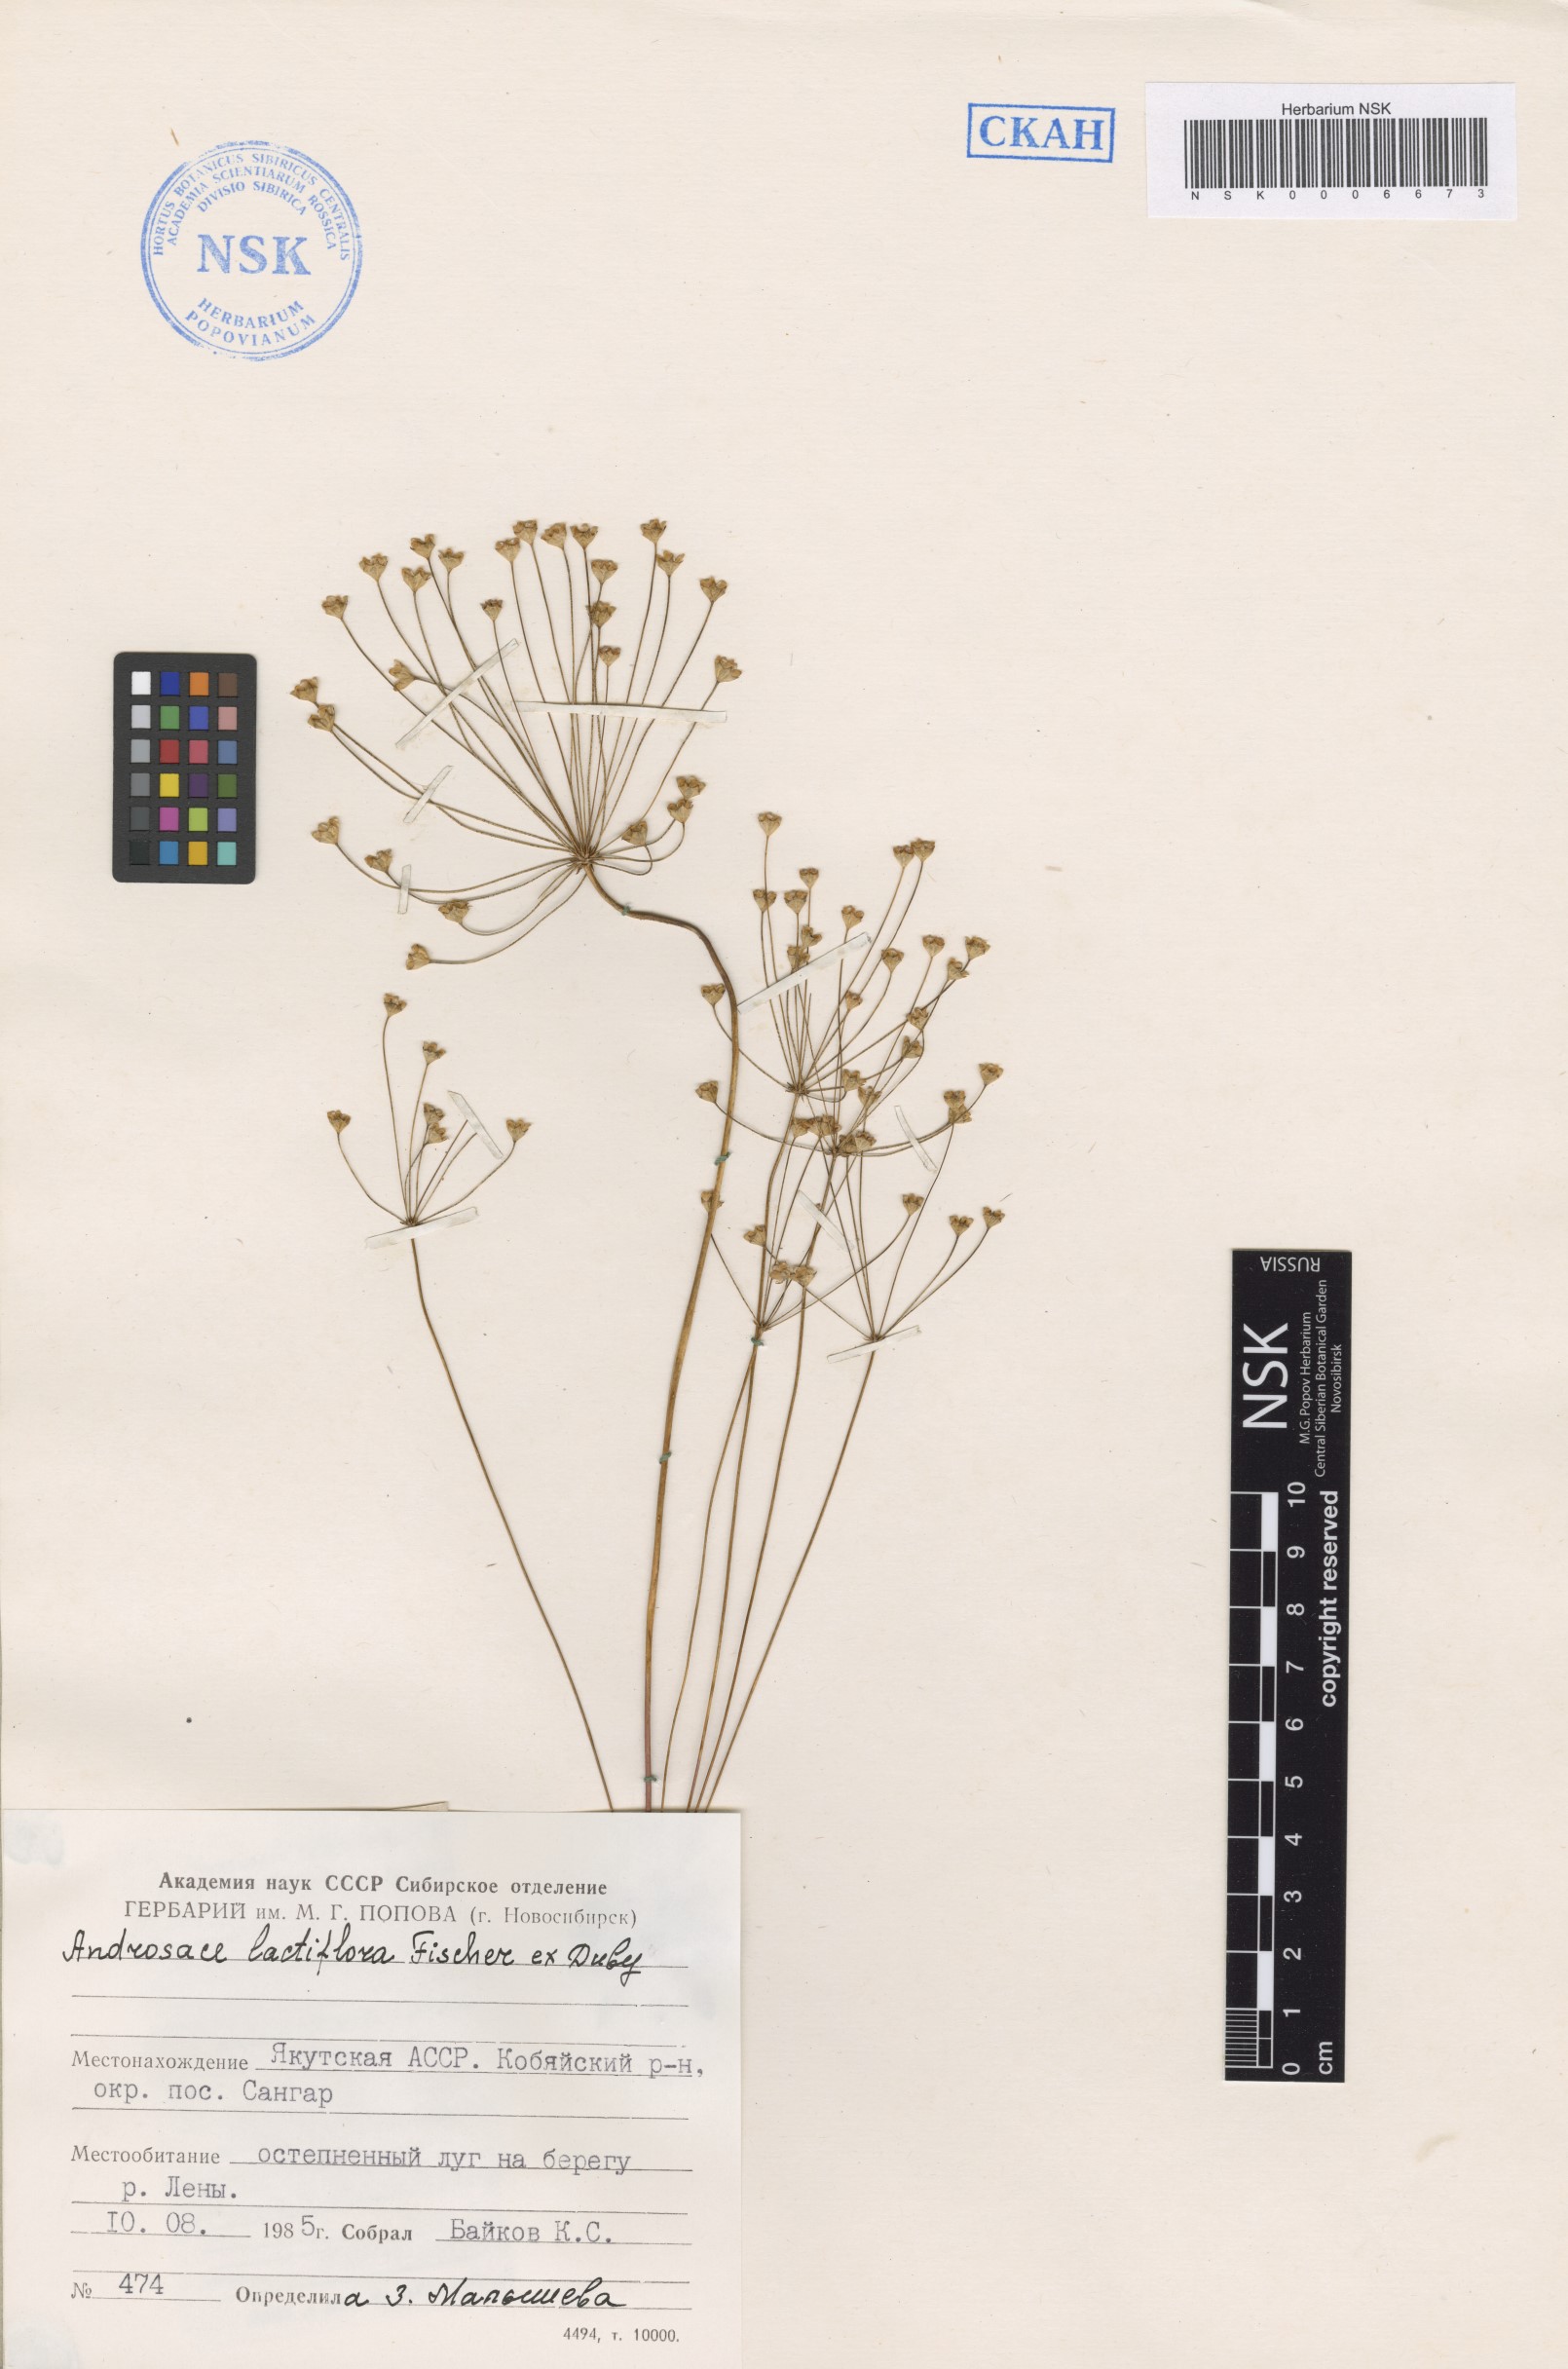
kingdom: Plantae
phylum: Tracheophyta
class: Magnoliopsida
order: Ericales
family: Primulaceae
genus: Androsace
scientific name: Androsace lactiflora
